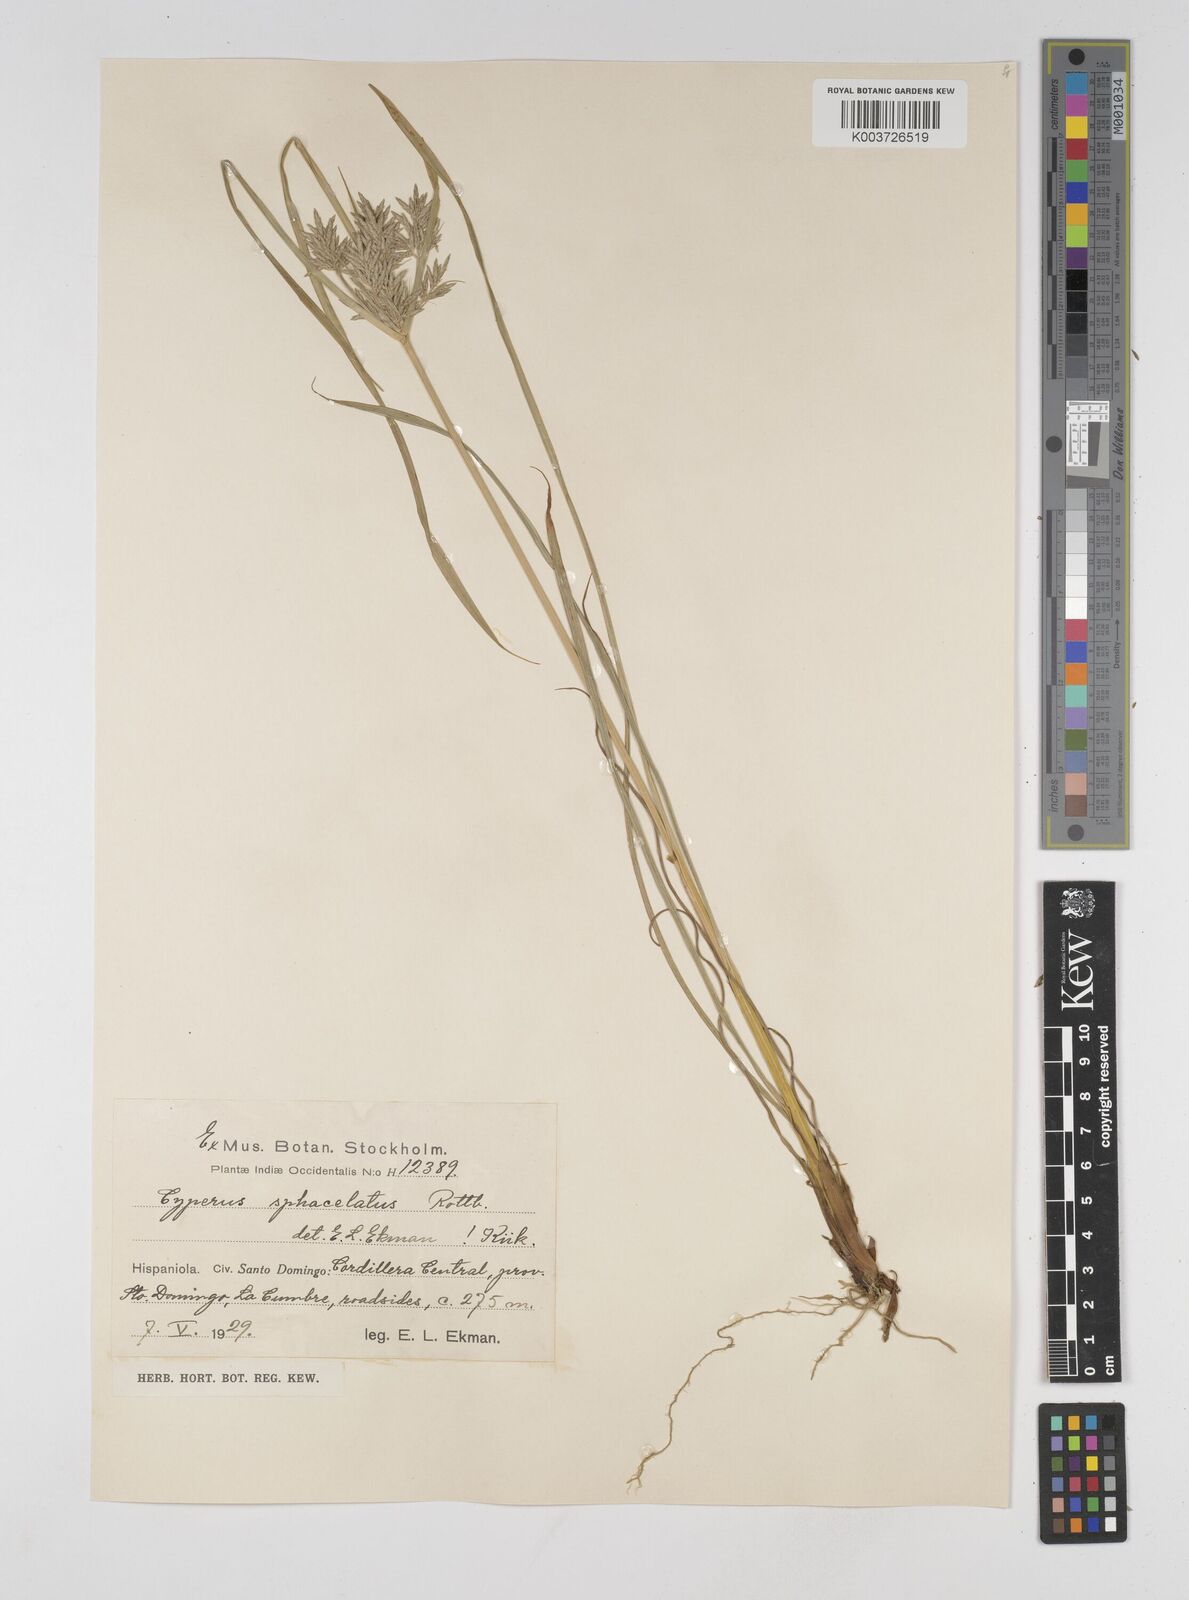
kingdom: Plantae
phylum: Tracheophyta
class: Liliopsida
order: Poales
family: Cyperaceae
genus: Cyperus
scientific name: Cyperus sphacelatus
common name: Roadside flatsedge
